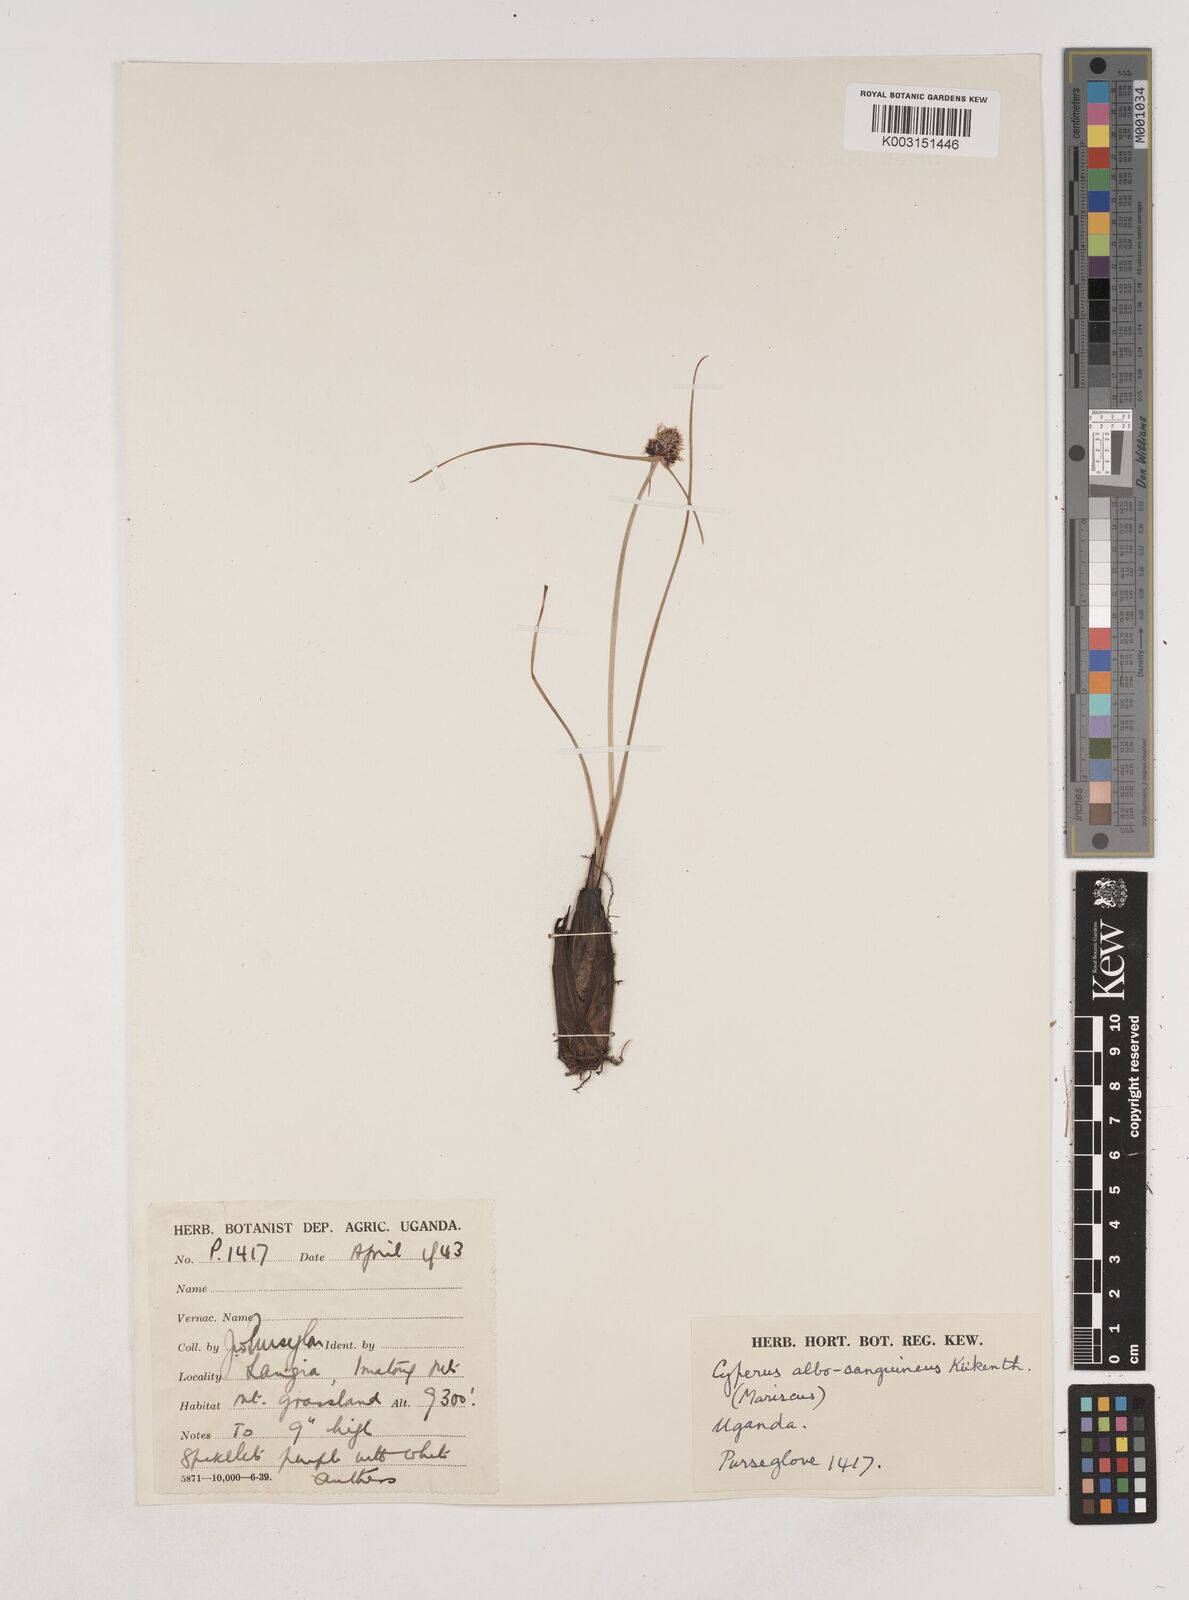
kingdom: Plantae
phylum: Tracheophyta
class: Liliopsida
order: Poales
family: Cyperaceae
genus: Cyperus
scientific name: Cyperus albosanguineus
